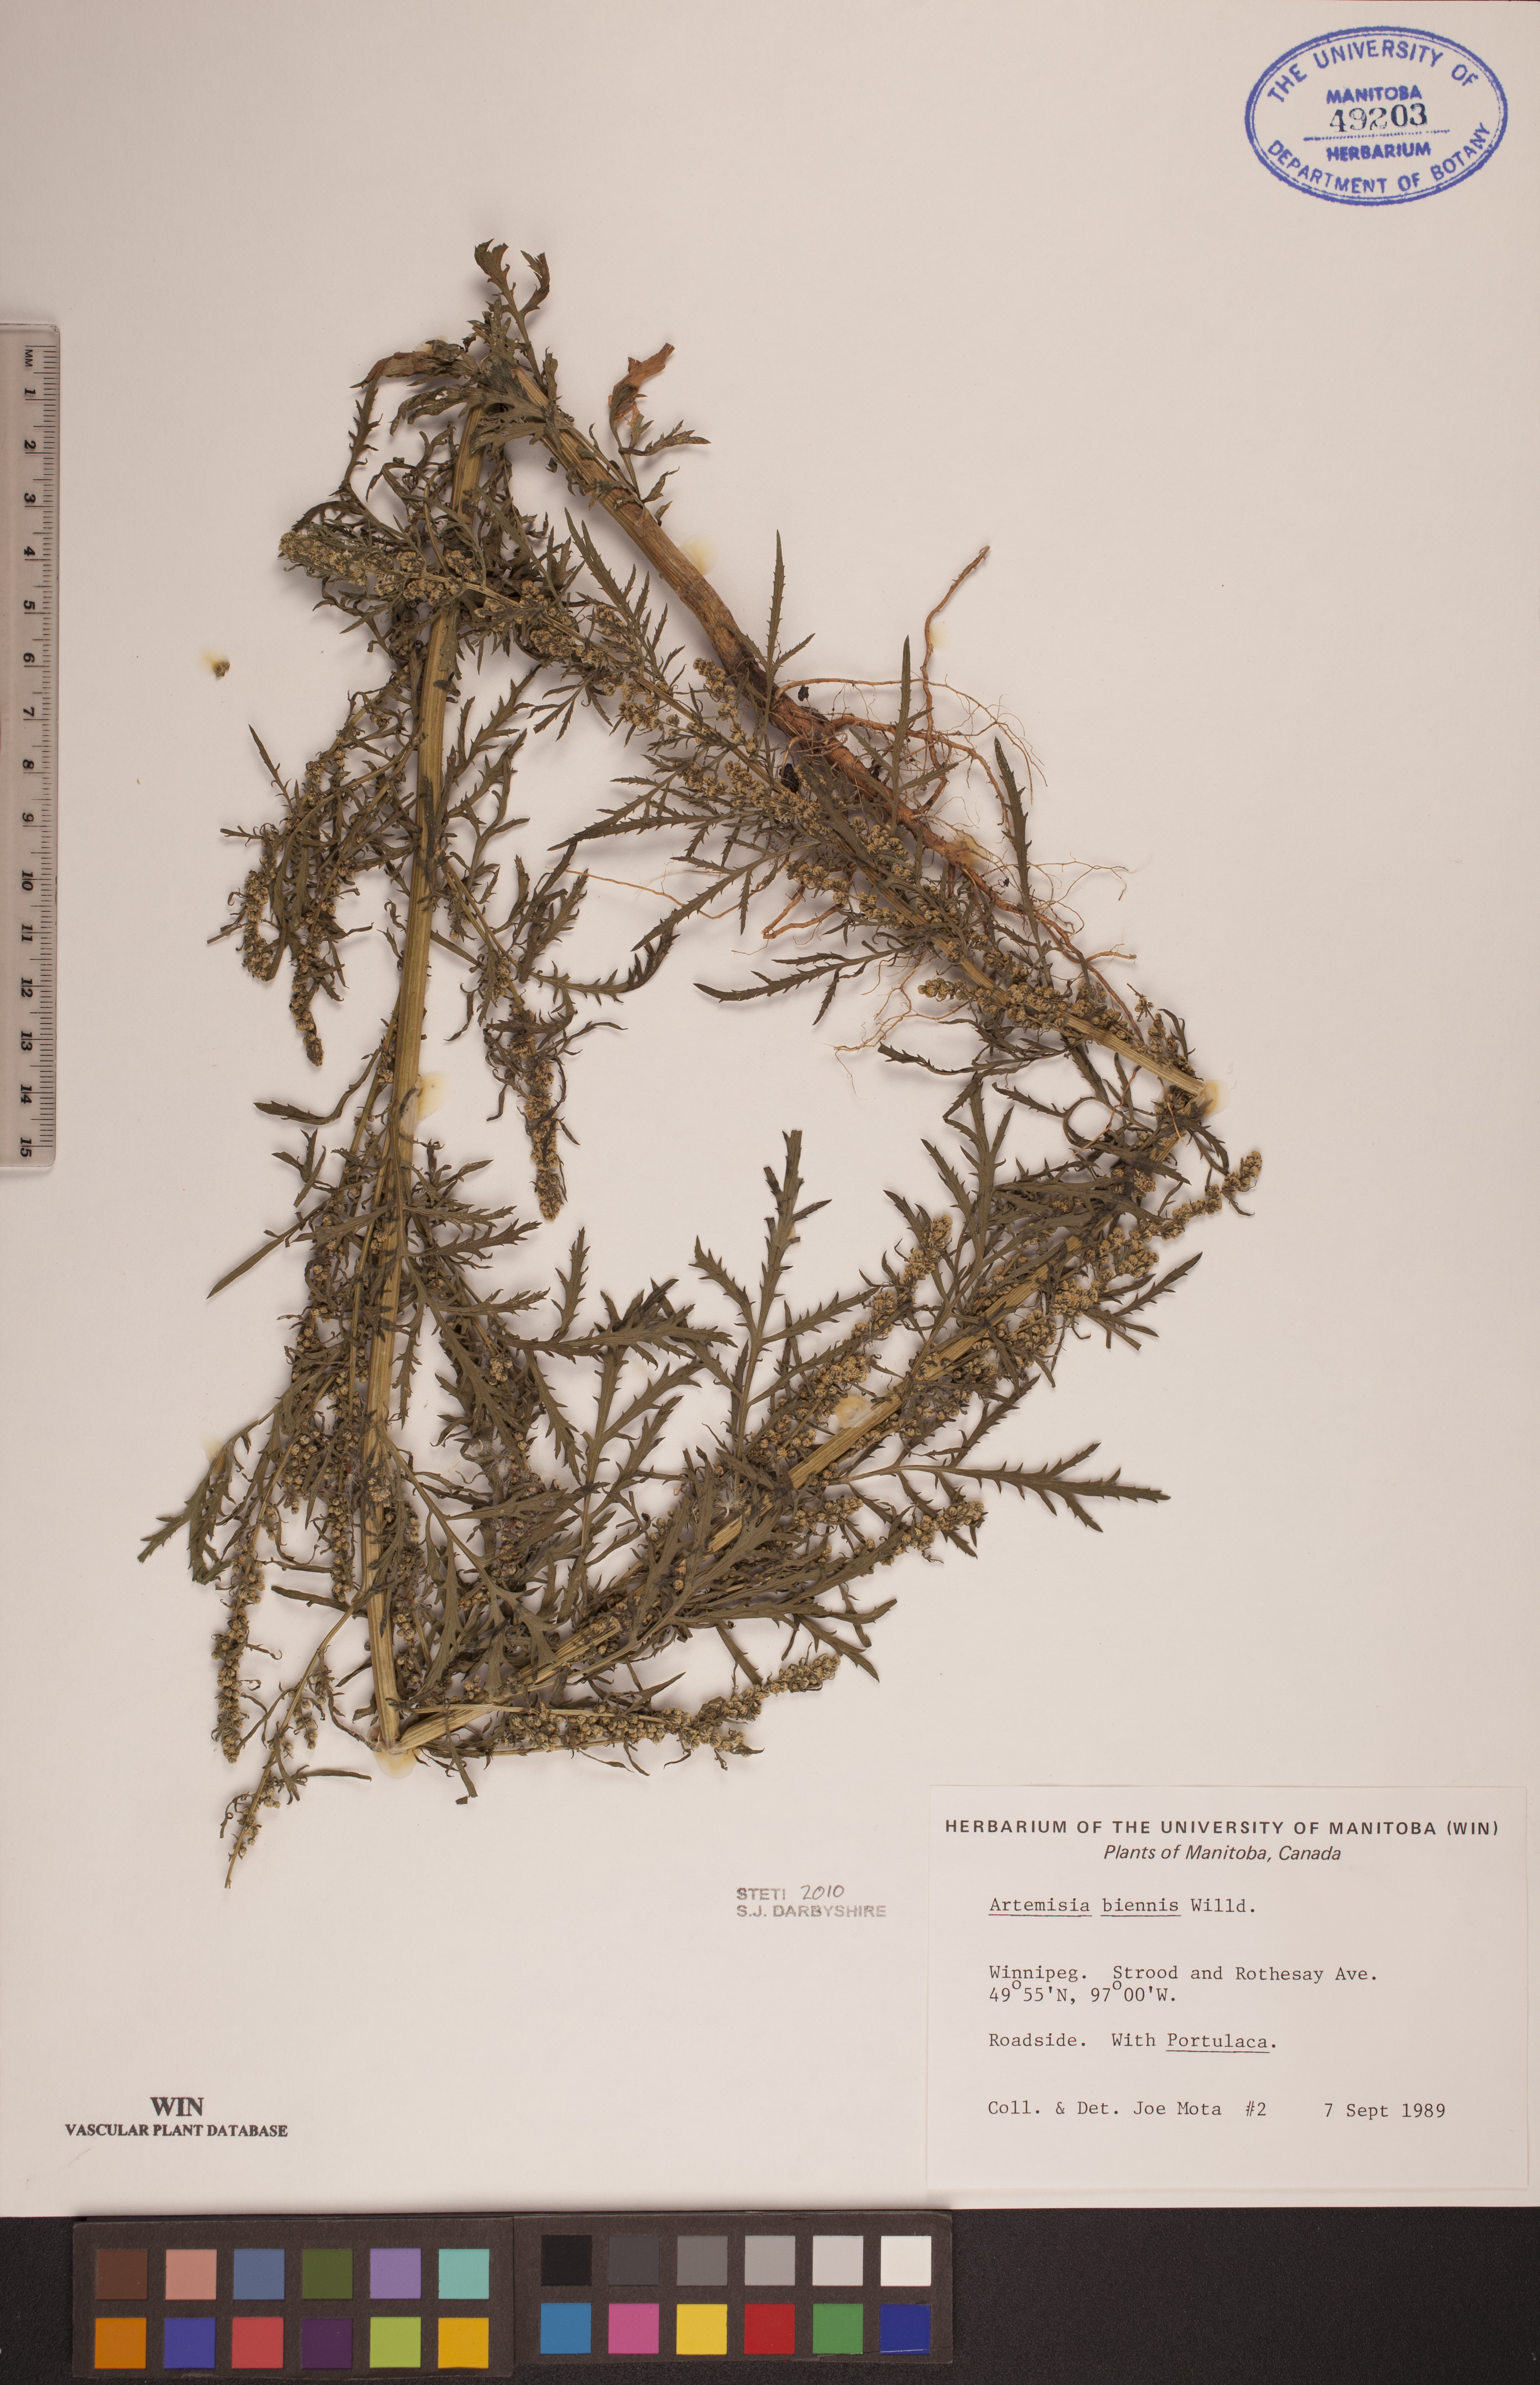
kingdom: Plantae
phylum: Tracheophyta
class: Magnoliopsida
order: Asterales
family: Asteraceae
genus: Artemisia
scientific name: Artemisia biennis
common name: Biennial wormwood
